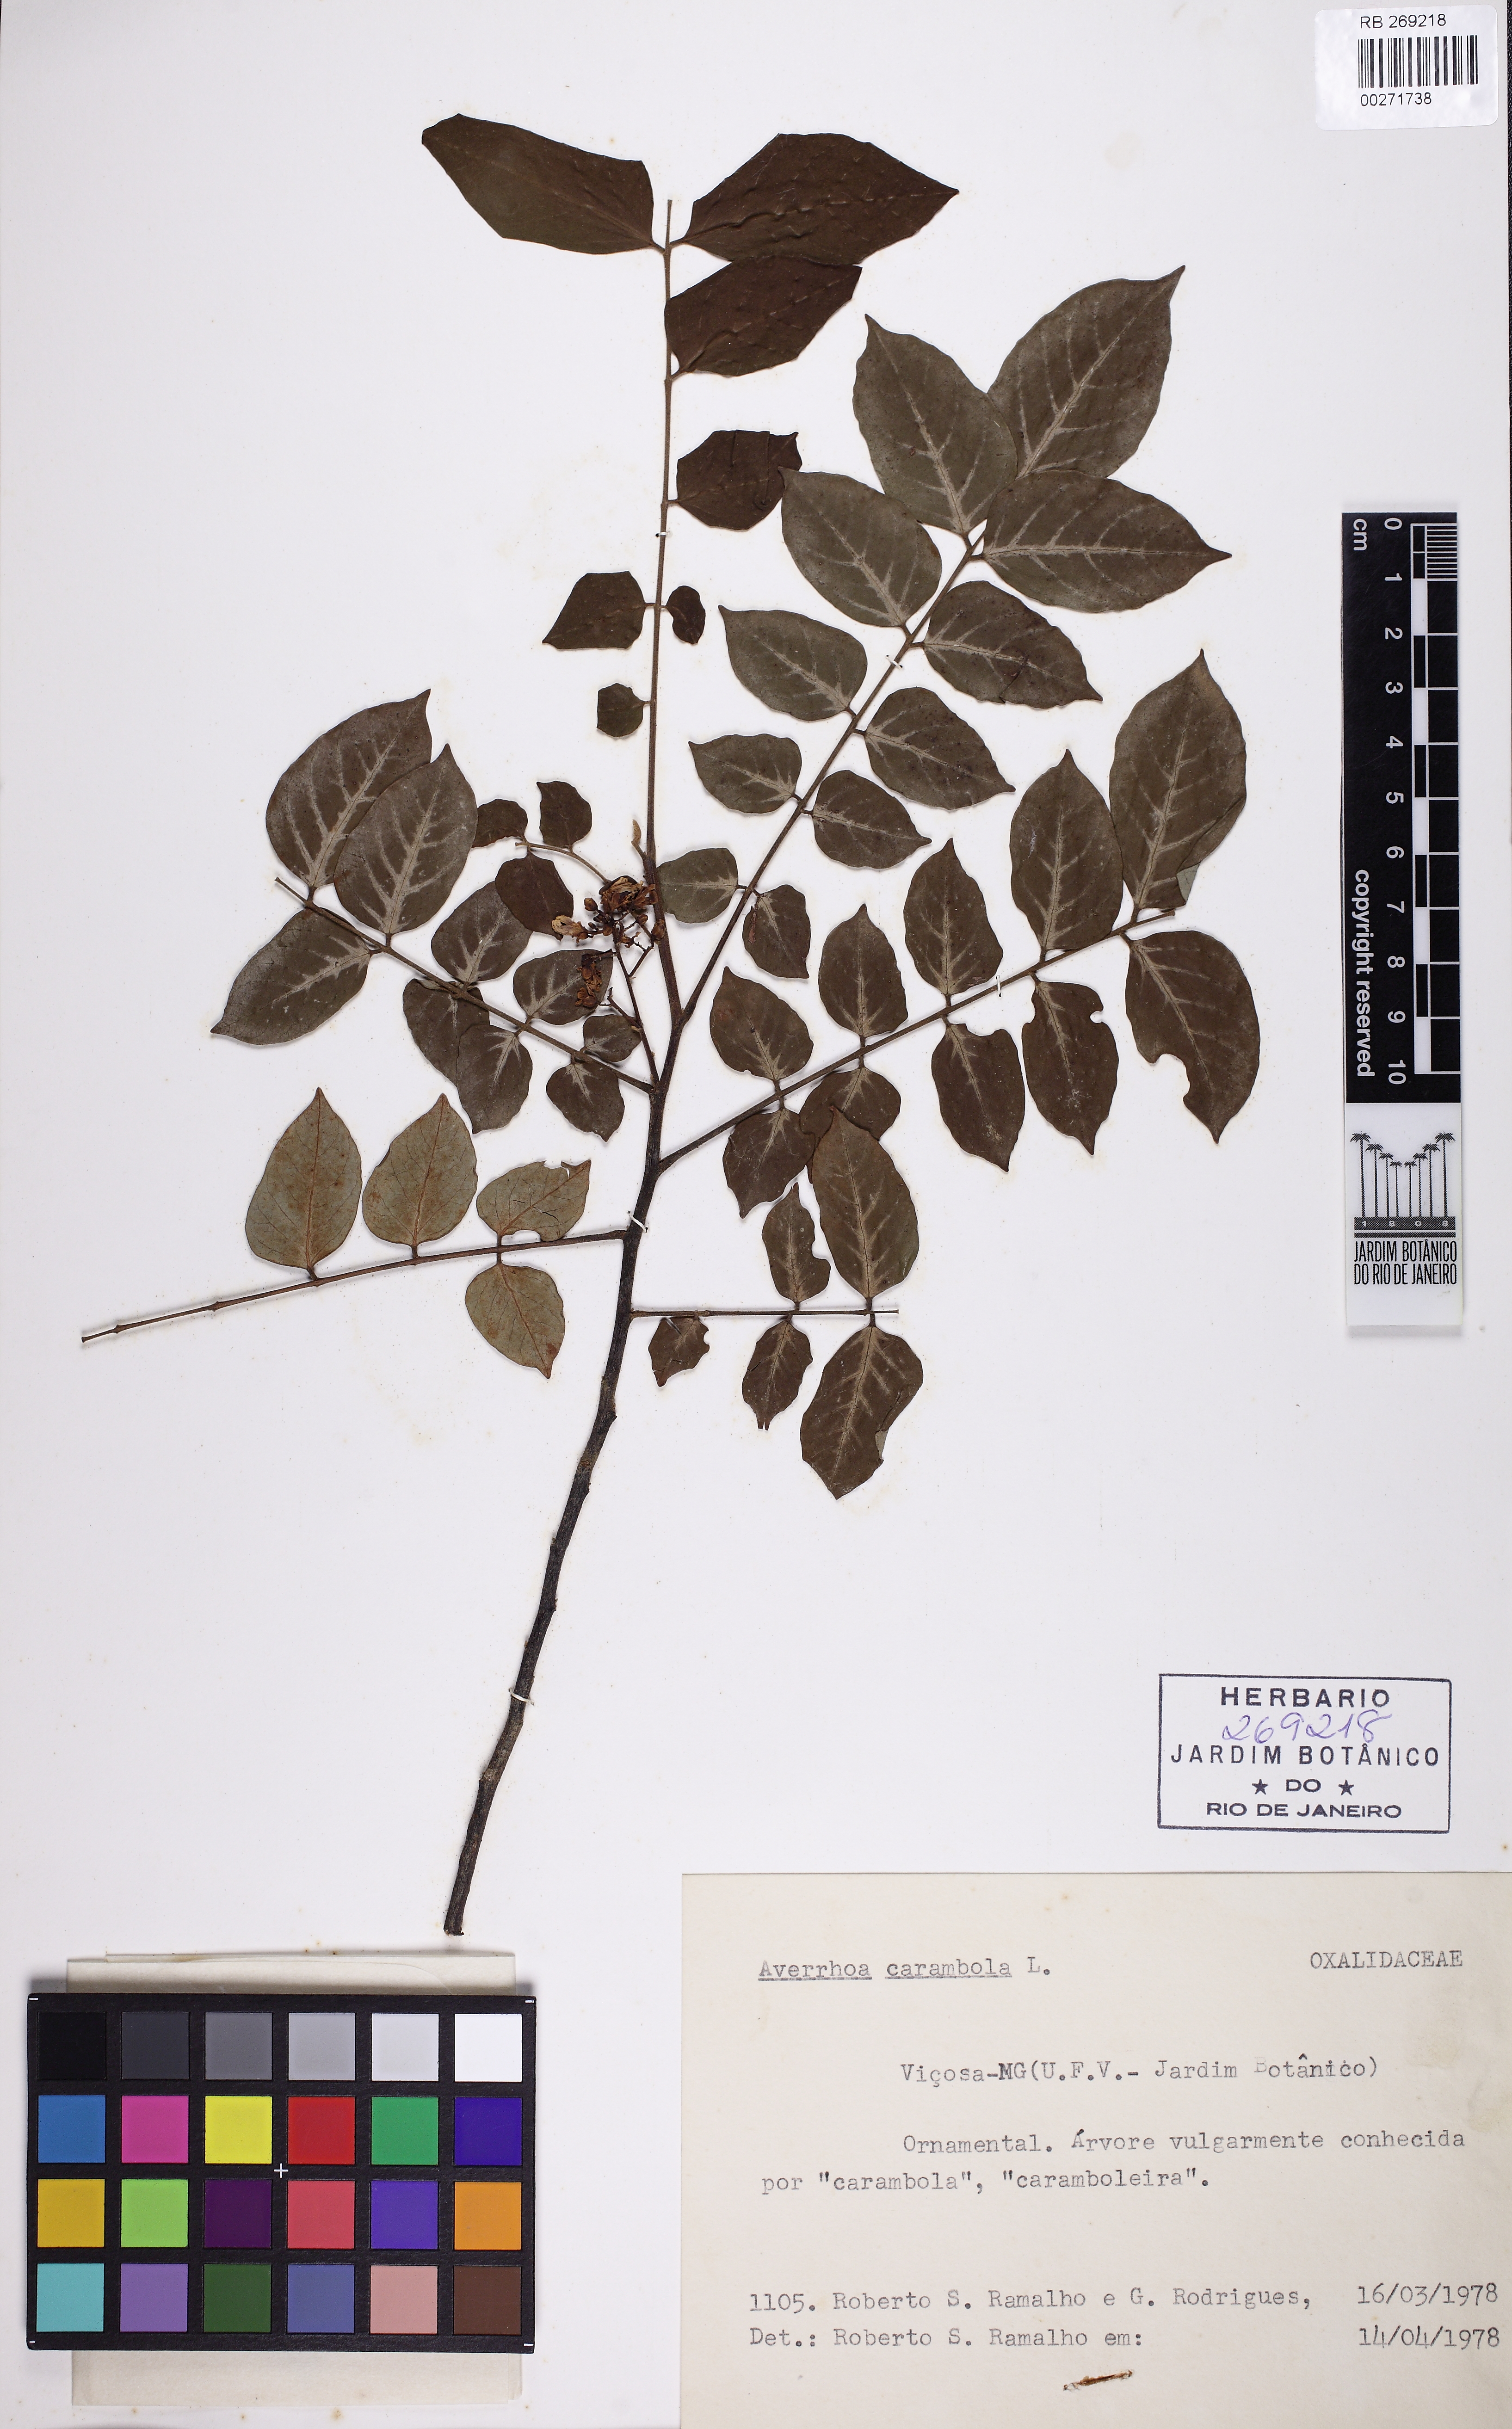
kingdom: Plantae
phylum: Tracheophyta
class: Magnoliopsida
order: Oxalidales
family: Oxalidaceae
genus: Averrhoa
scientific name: Averrhoa carambola
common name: Blimbing
